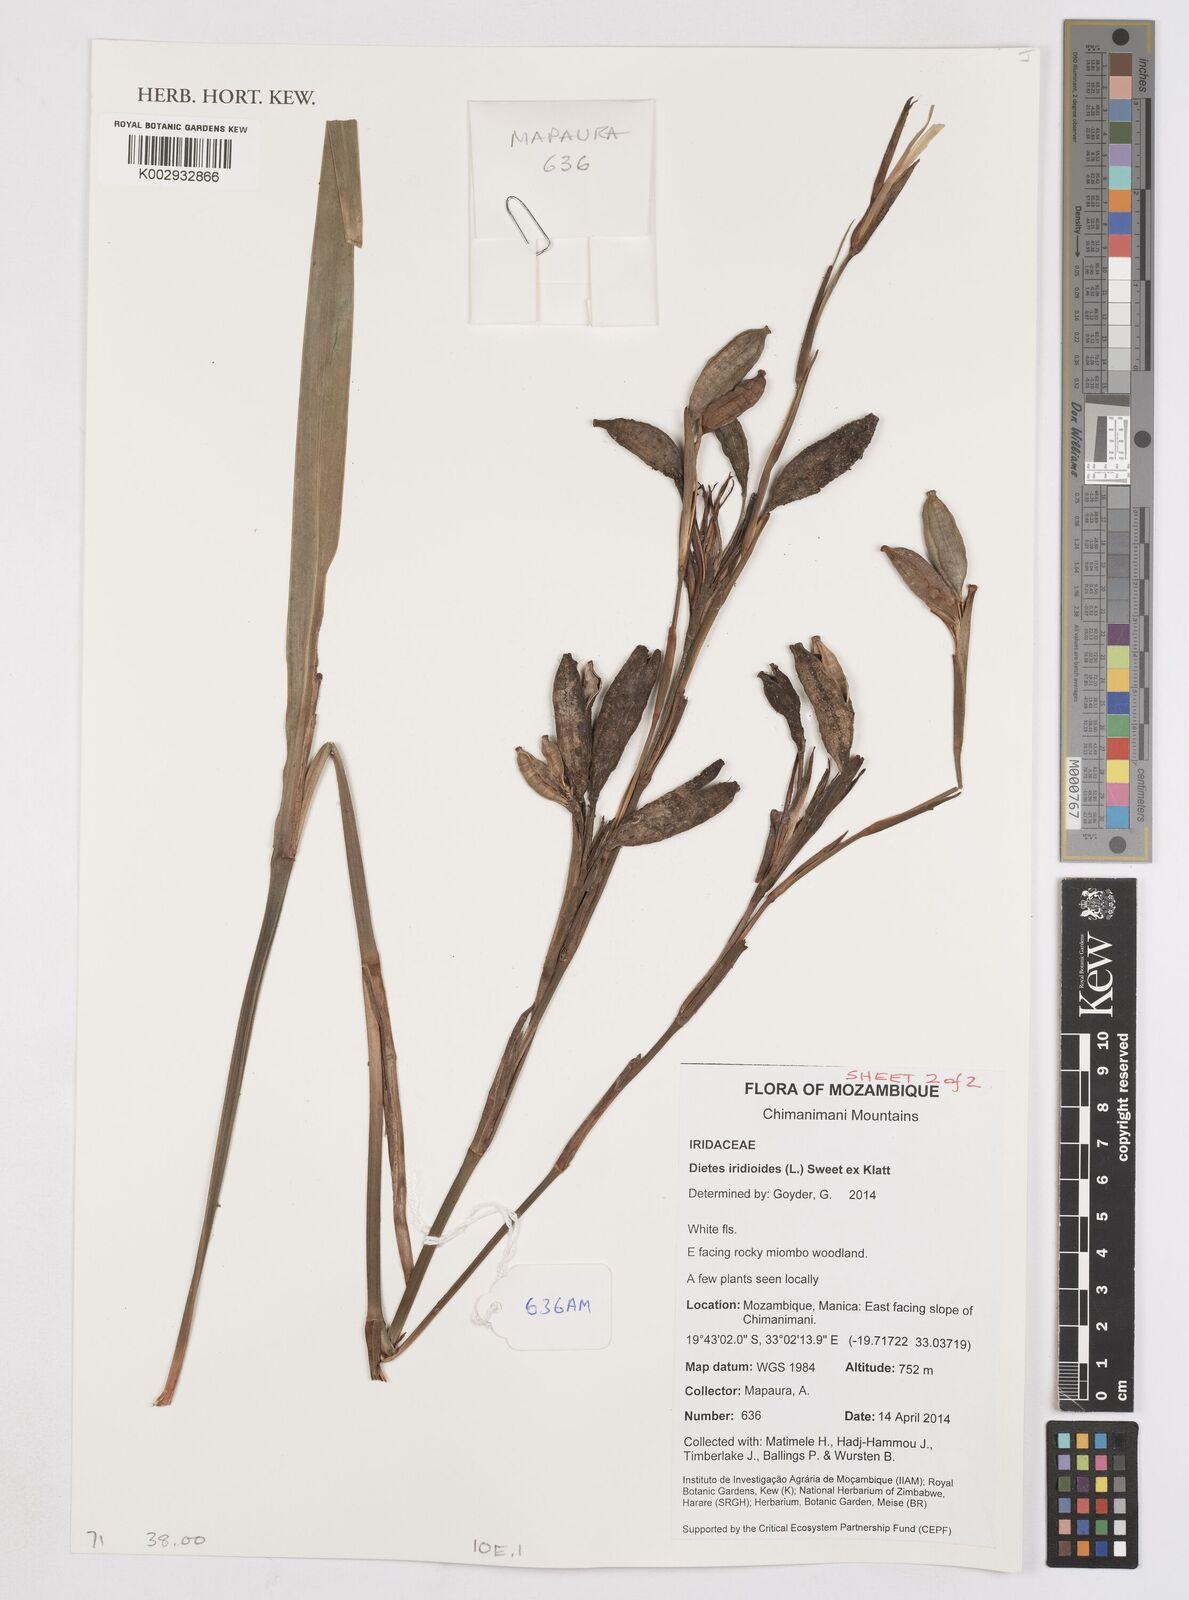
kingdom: Plantae
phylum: Tracheophyta
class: Liliopsida
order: Asparagales
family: Iridaceae
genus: Dietes
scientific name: Dietes iridioides
